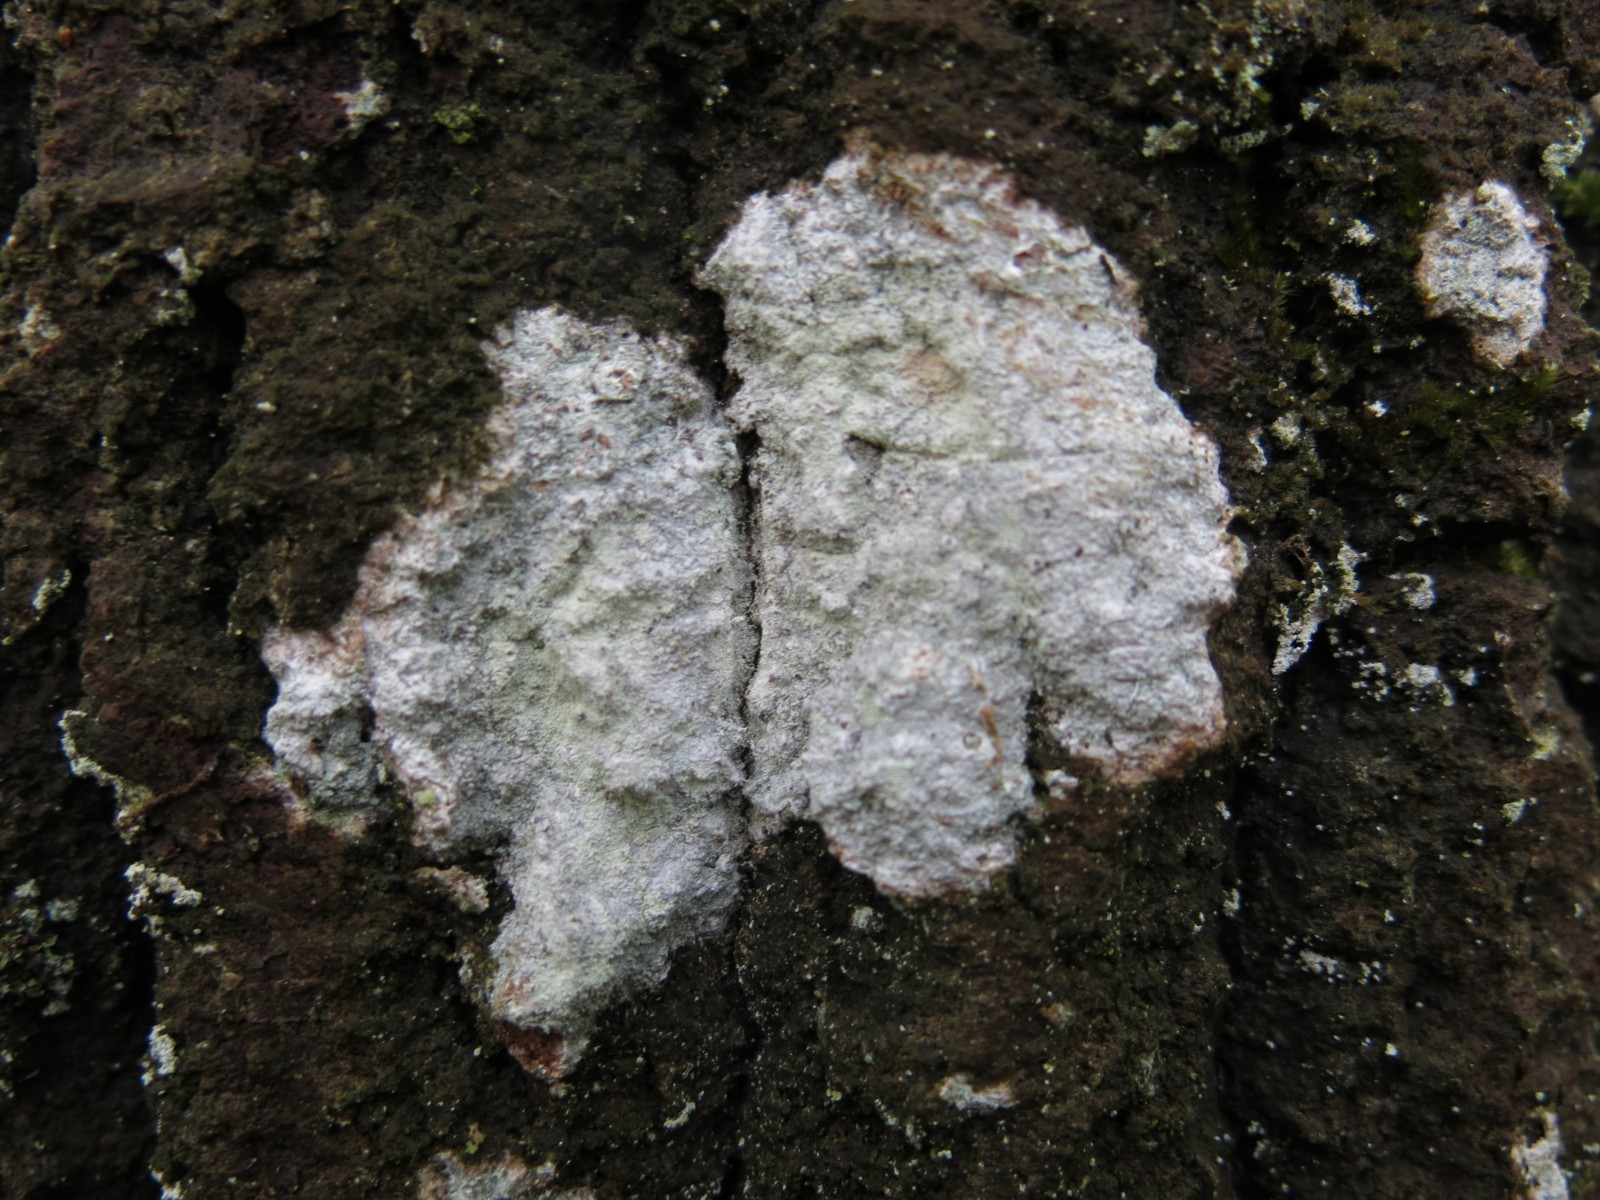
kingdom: Fungi
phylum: Ascomycota
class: Lecanoromycetes
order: Ostropales
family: Phlyctidaceae
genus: Phlyctis
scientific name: Phlyctis argena
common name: almindelig sølvlav
